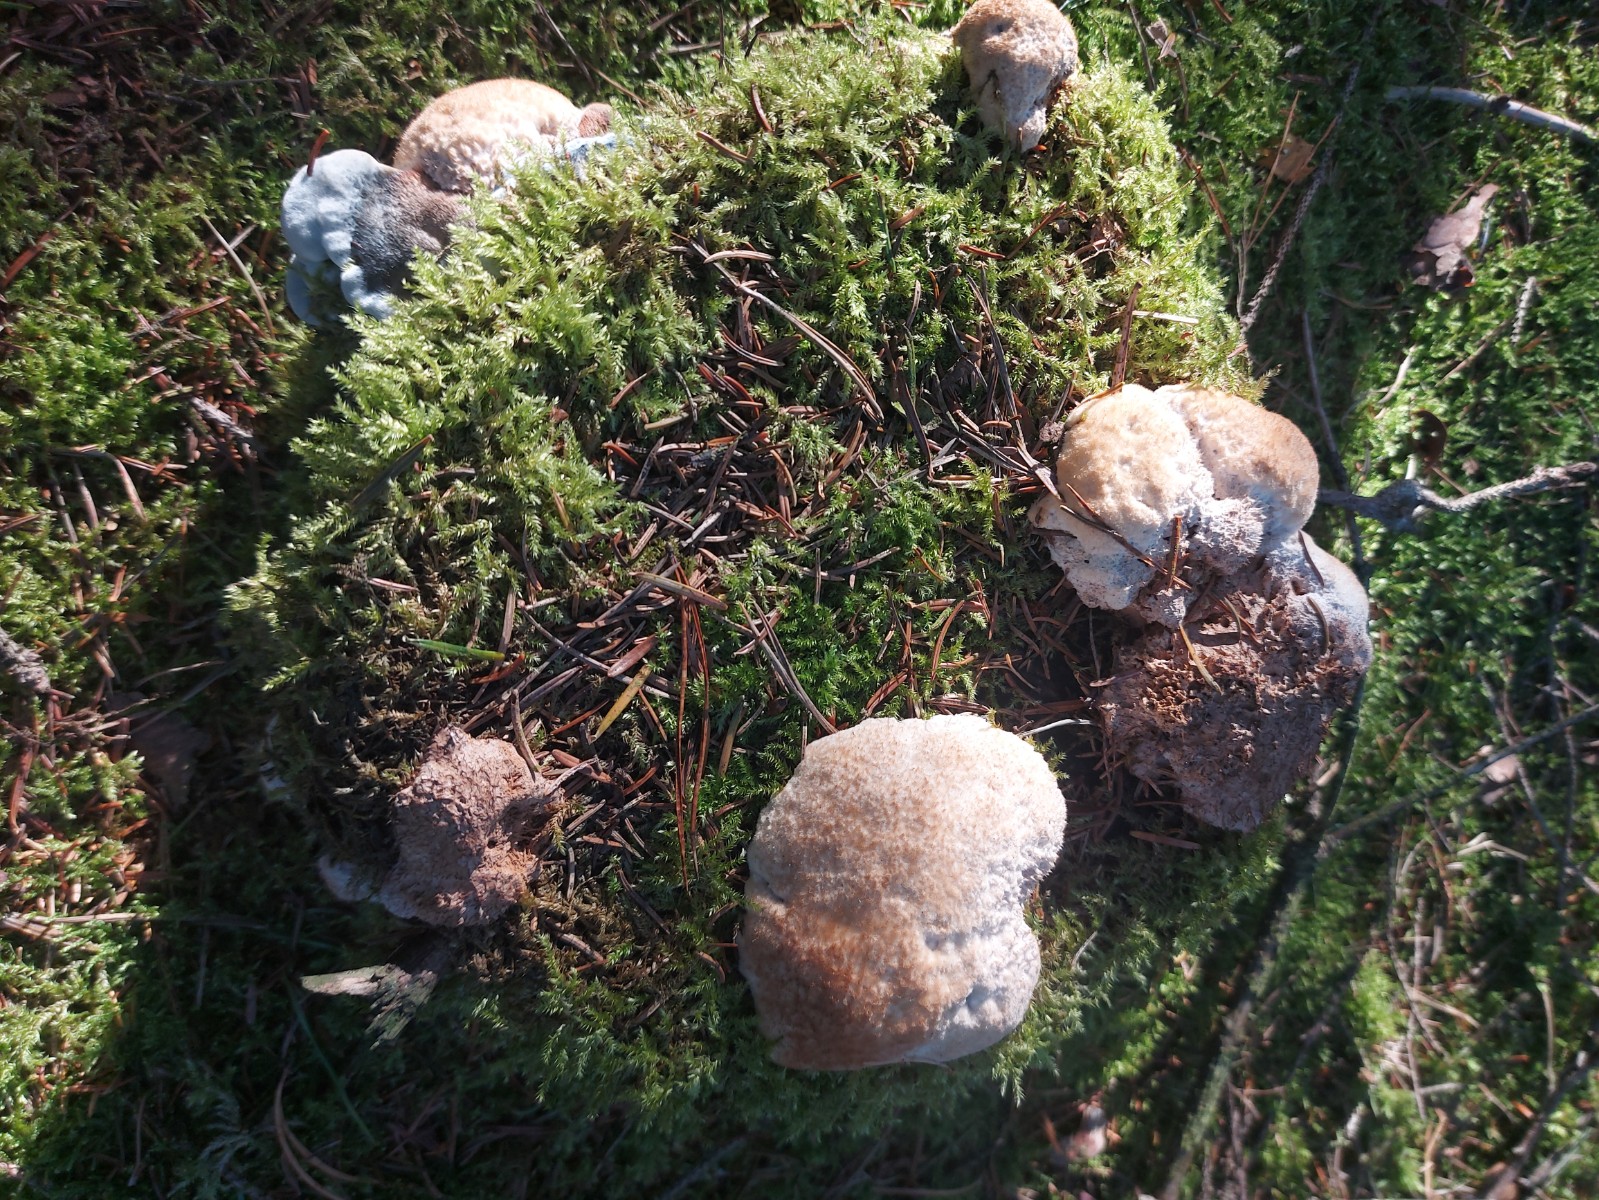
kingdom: Fungi
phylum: Basidiomycota
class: Agaricomycetes
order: Polyporales
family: Dacryobolaceae
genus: Postia
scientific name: Postia ptychogaster
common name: støvende kødporesvamp
